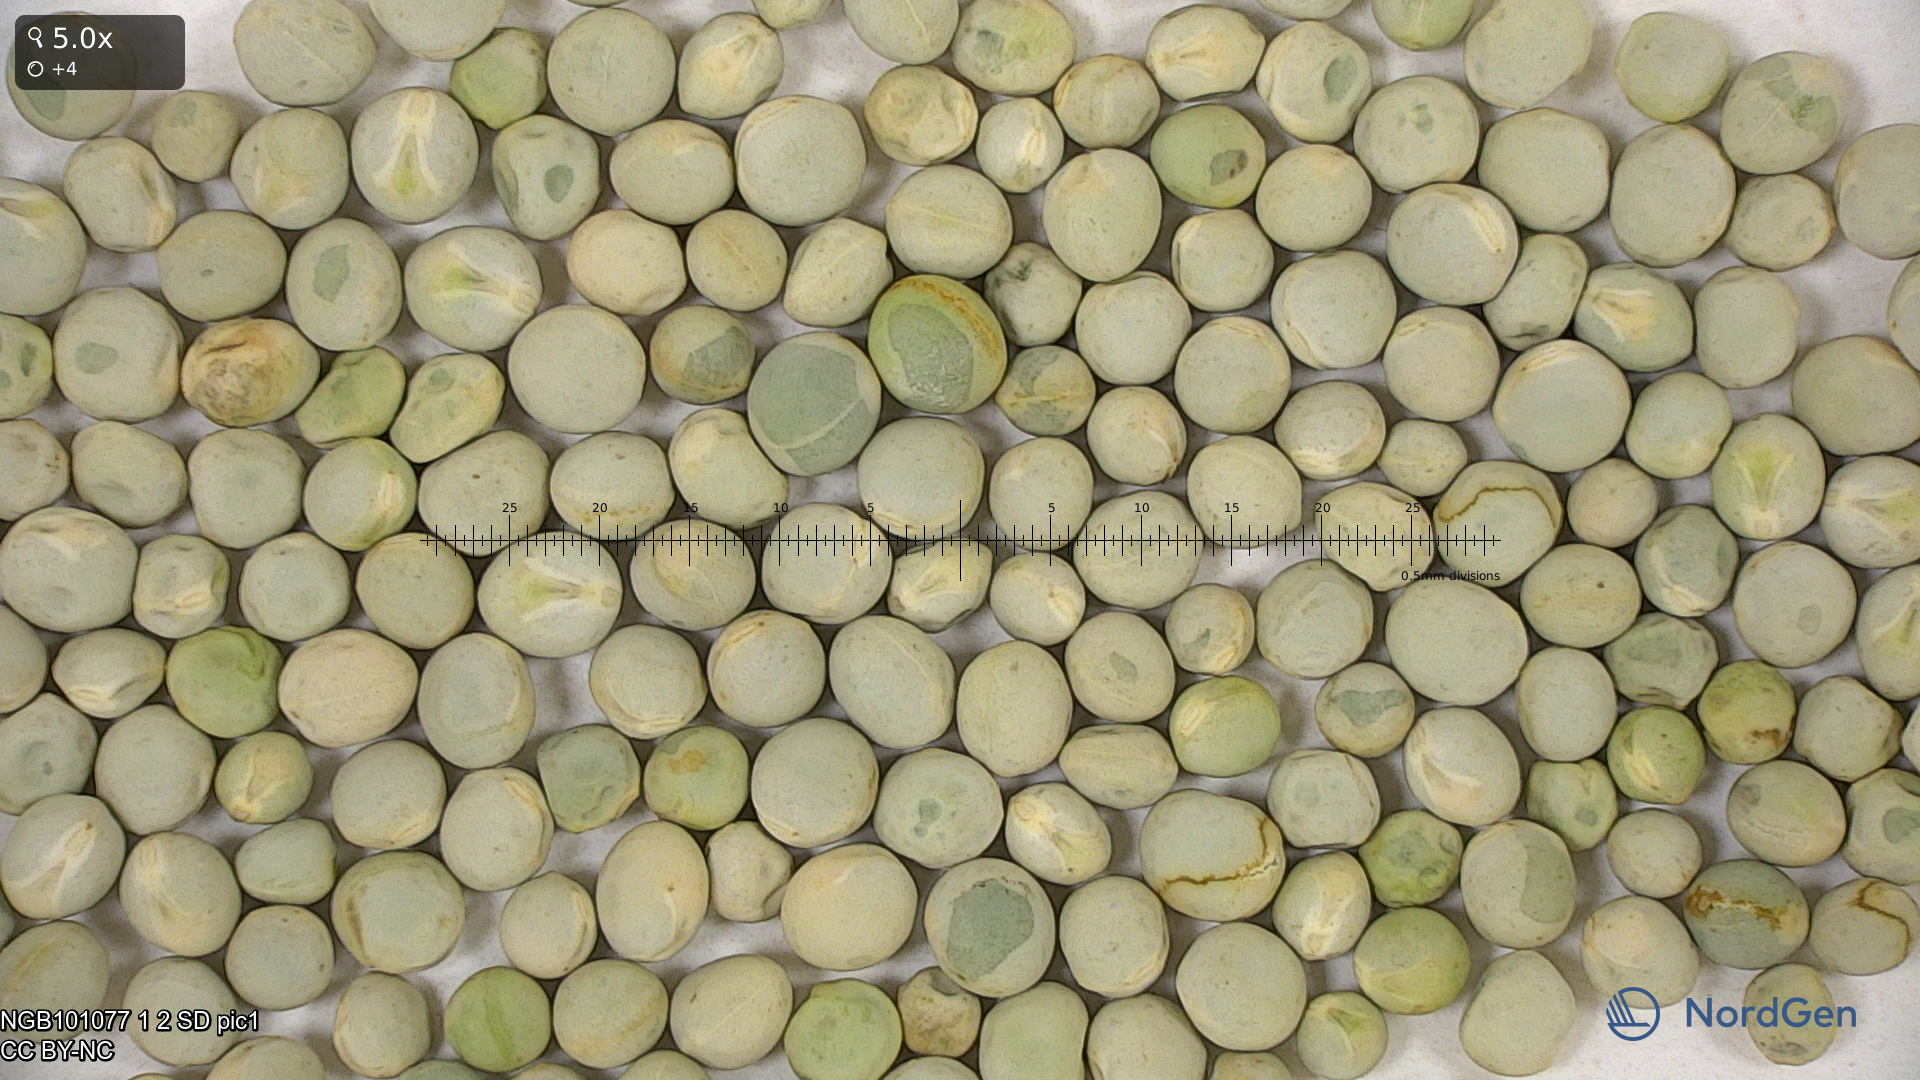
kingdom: Plantae
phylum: Tracheophyta
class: Magnoliopsida
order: Fabales
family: Fabaceae
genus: Lathyrus
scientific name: Lathyrus oleraceus
